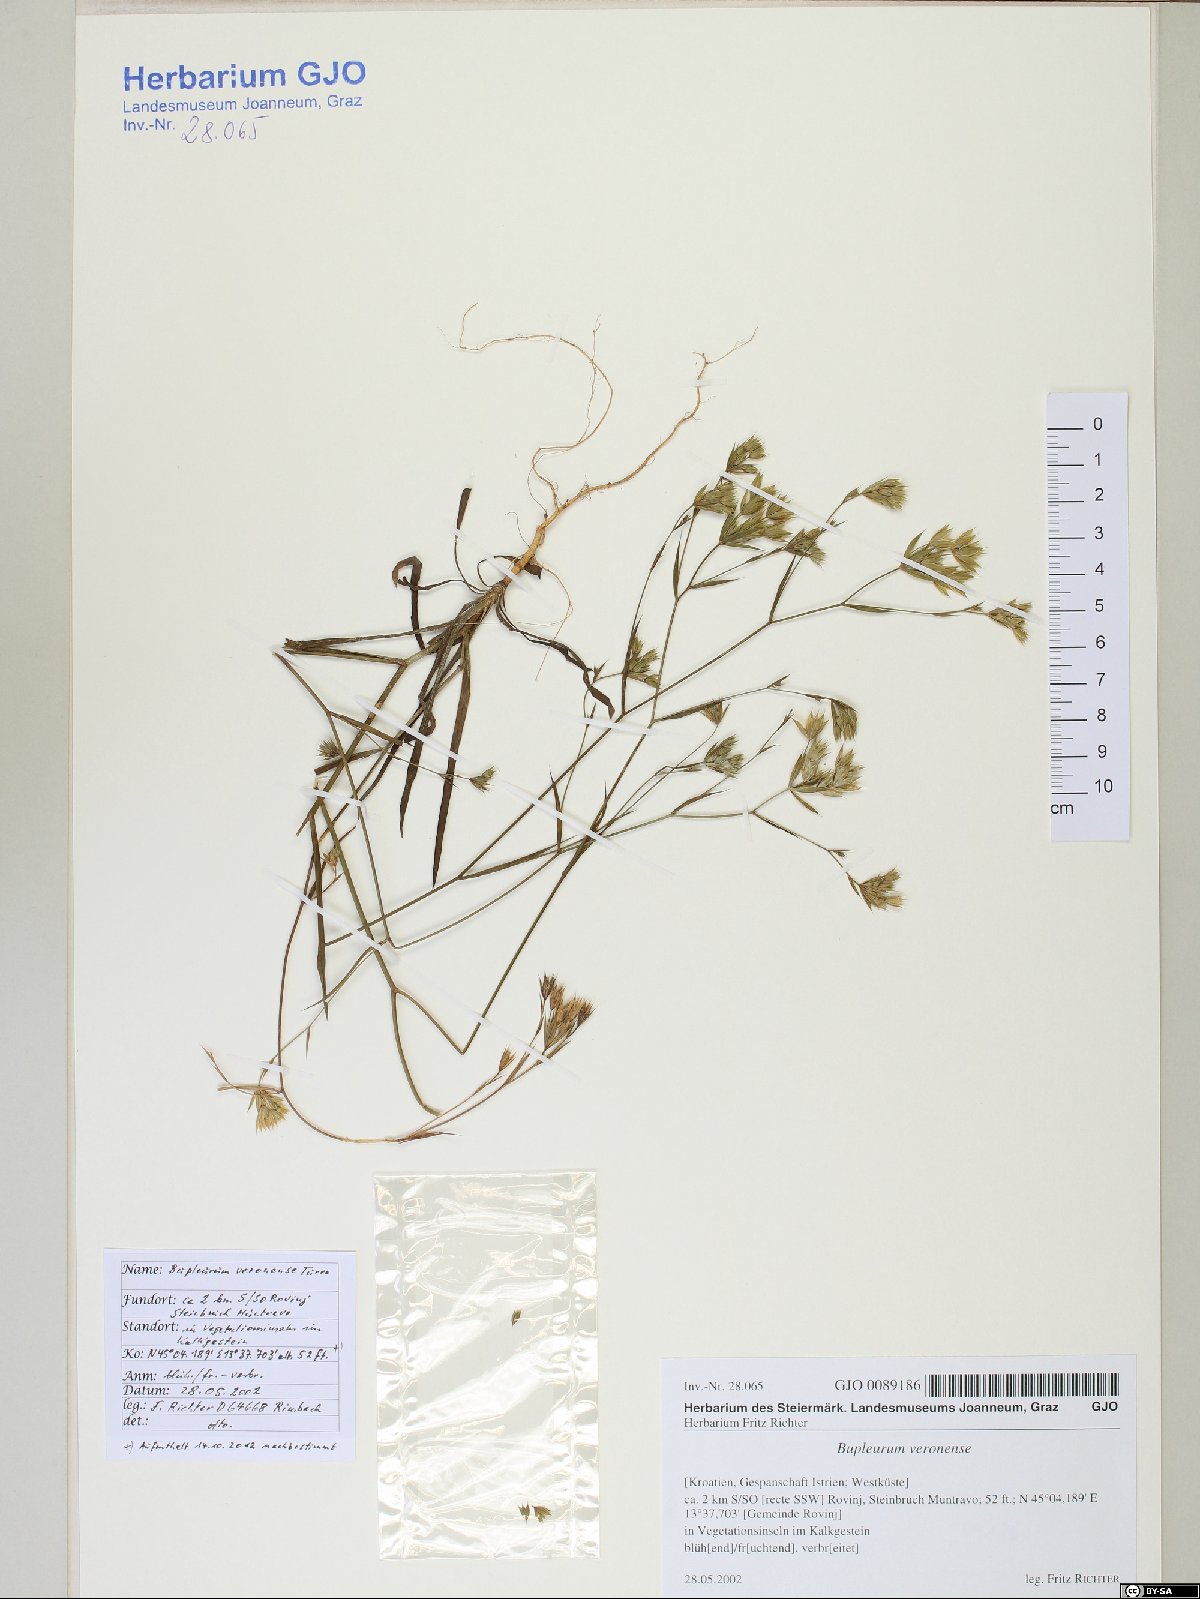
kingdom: Plantae
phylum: Tracheophyta
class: Magnoliopsida
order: Apiales
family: Apiaceae
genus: Bupleurum
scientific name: Bupleurum veronense
